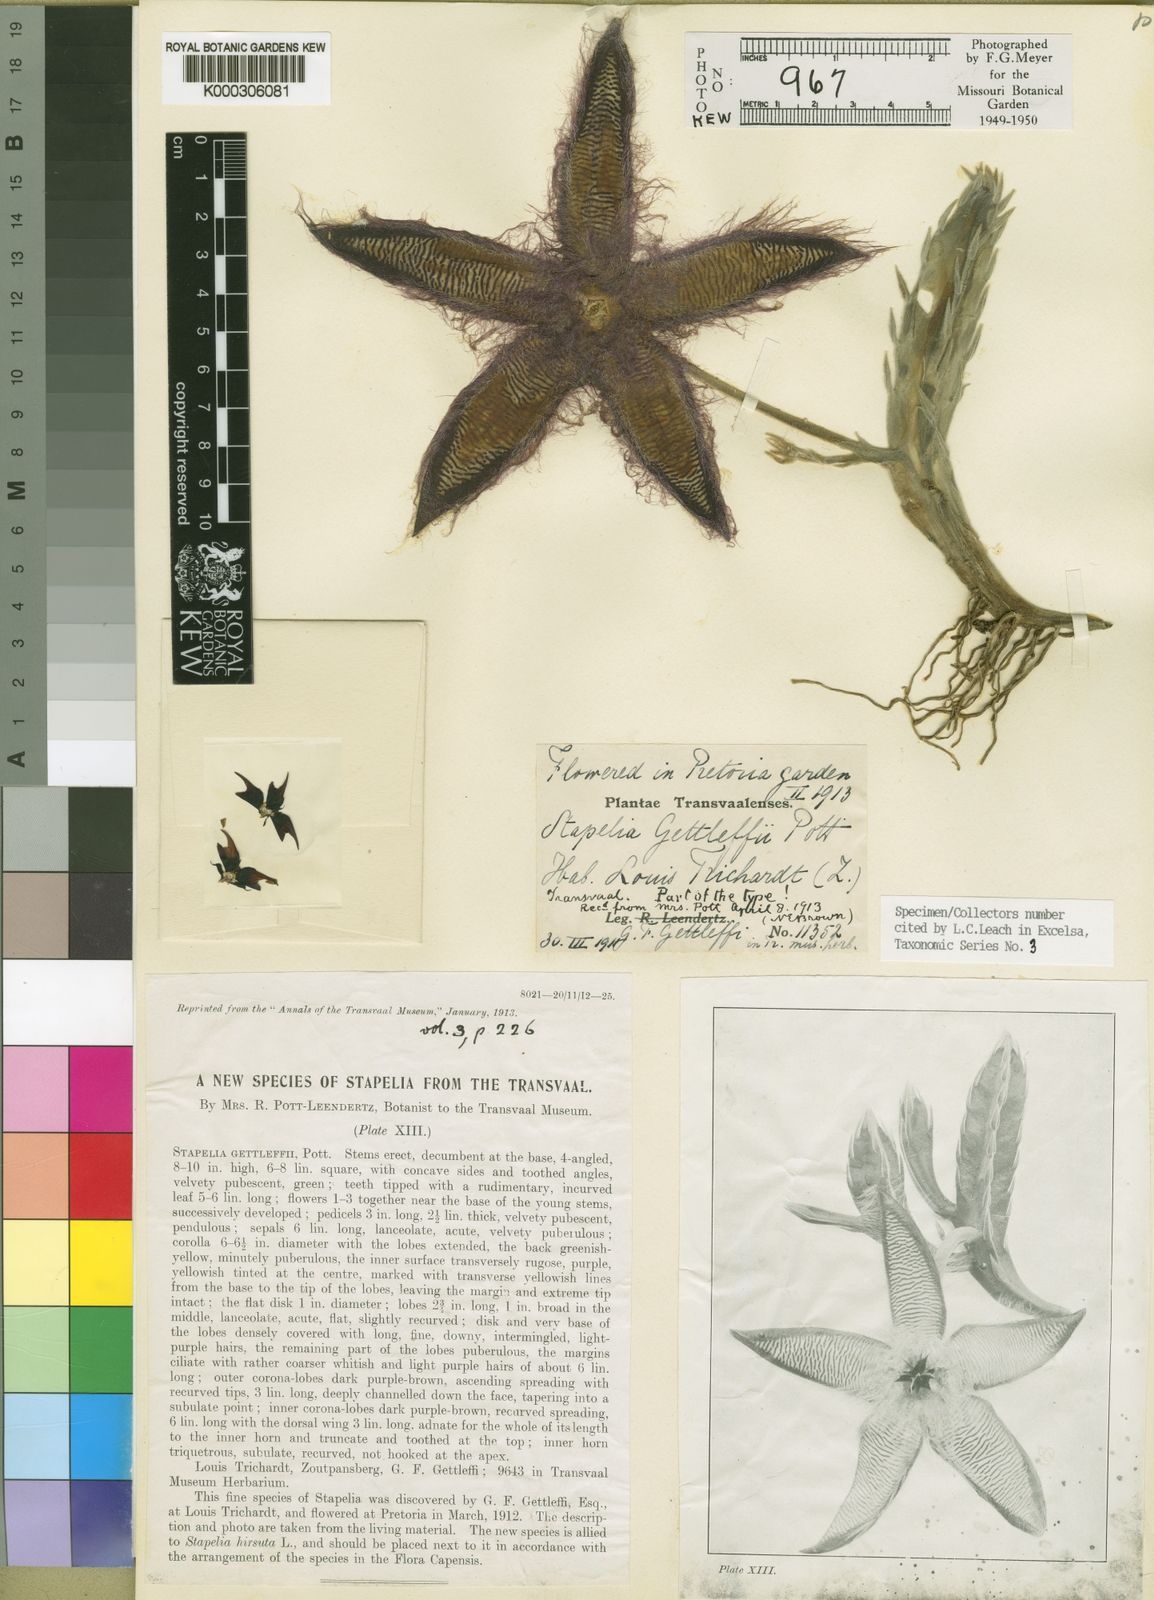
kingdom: Plantae
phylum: Tracheophyta
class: Magnoliopsida
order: Gentianales
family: Apocynaceae
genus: Ceropegia
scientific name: Ceropegia gettliffei
